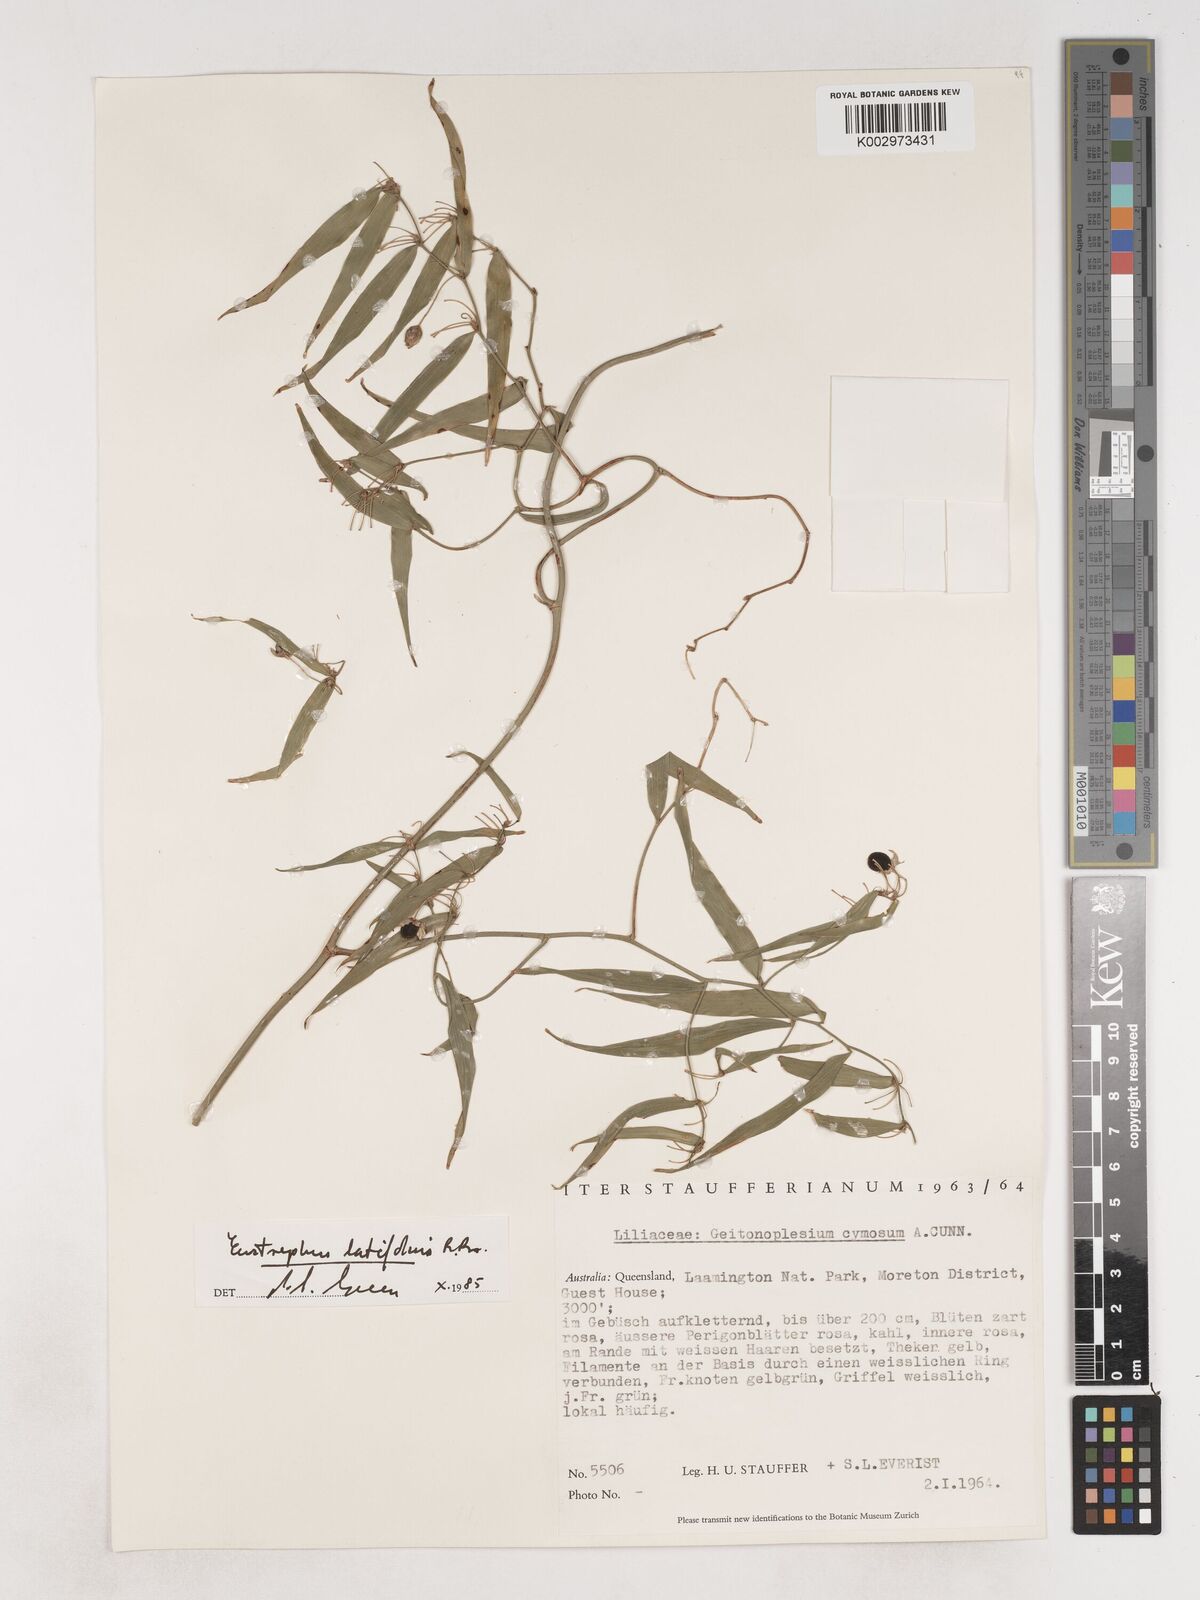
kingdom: Plantae
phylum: Tracheophyta
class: Liliopsida
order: Asparagales
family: Asparagaceae
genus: Eustrephus
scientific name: Eustrephus latifolius
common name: Orangevine
